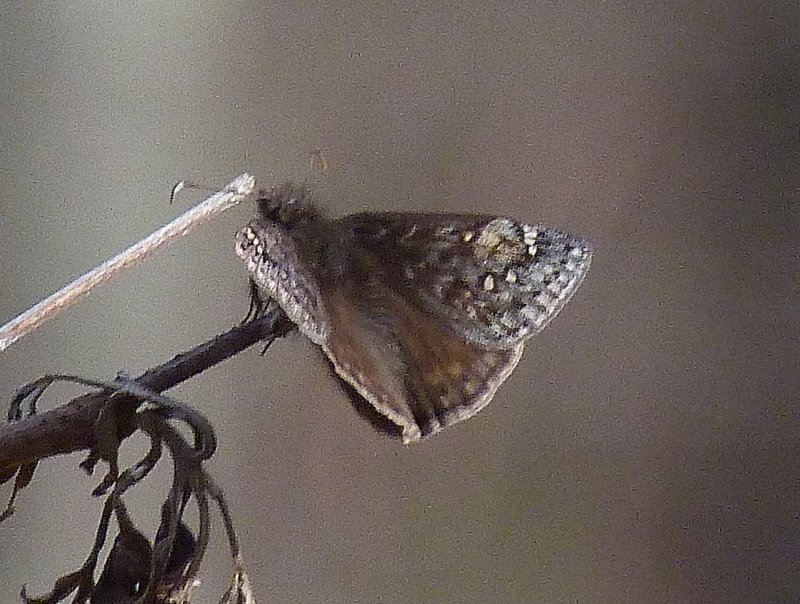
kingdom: Animalia
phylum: Arthropoda
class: Insecta
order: Lepidoptera
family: Hesperiidae
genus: Gesta
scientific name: Gesta
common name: Juvenal's Duskywing
